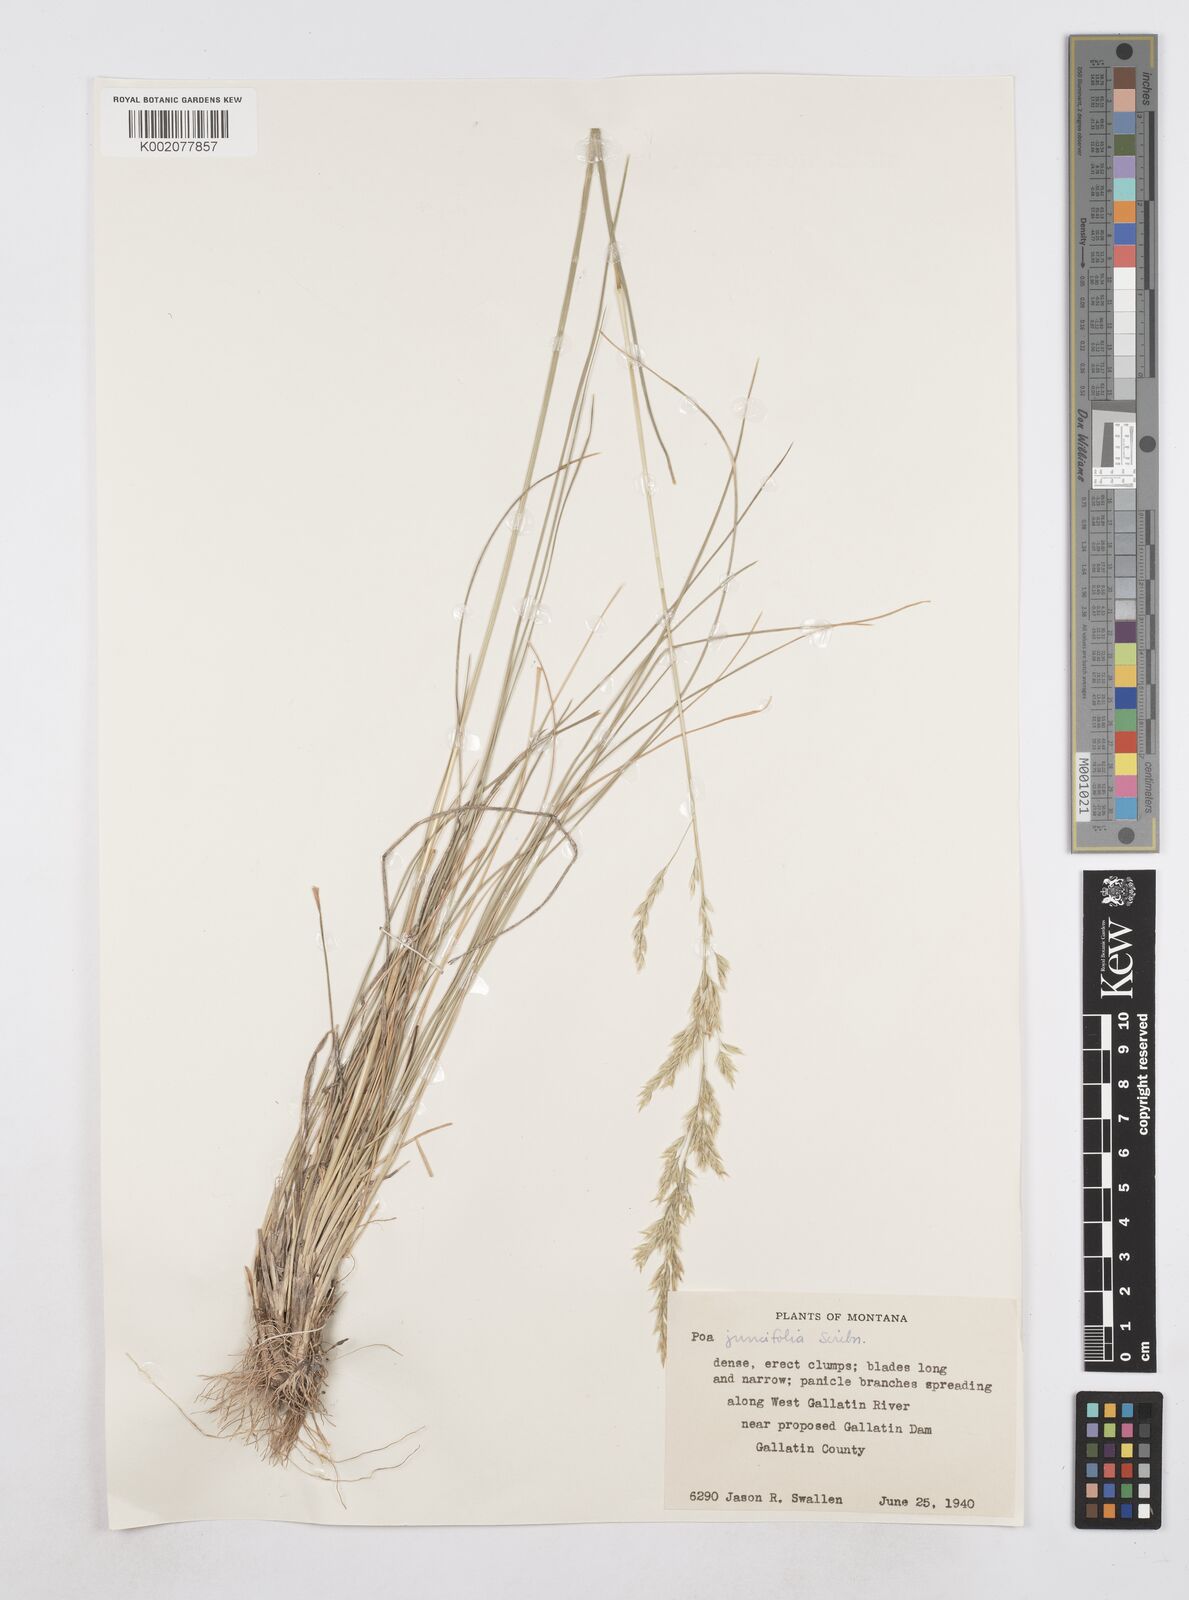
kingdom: Plantae
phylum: Tracheophyta
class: Liliopsida
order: Poales
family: Poaceae
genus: Poa
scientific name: Poa secunda
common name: Sandberg bluegrass
